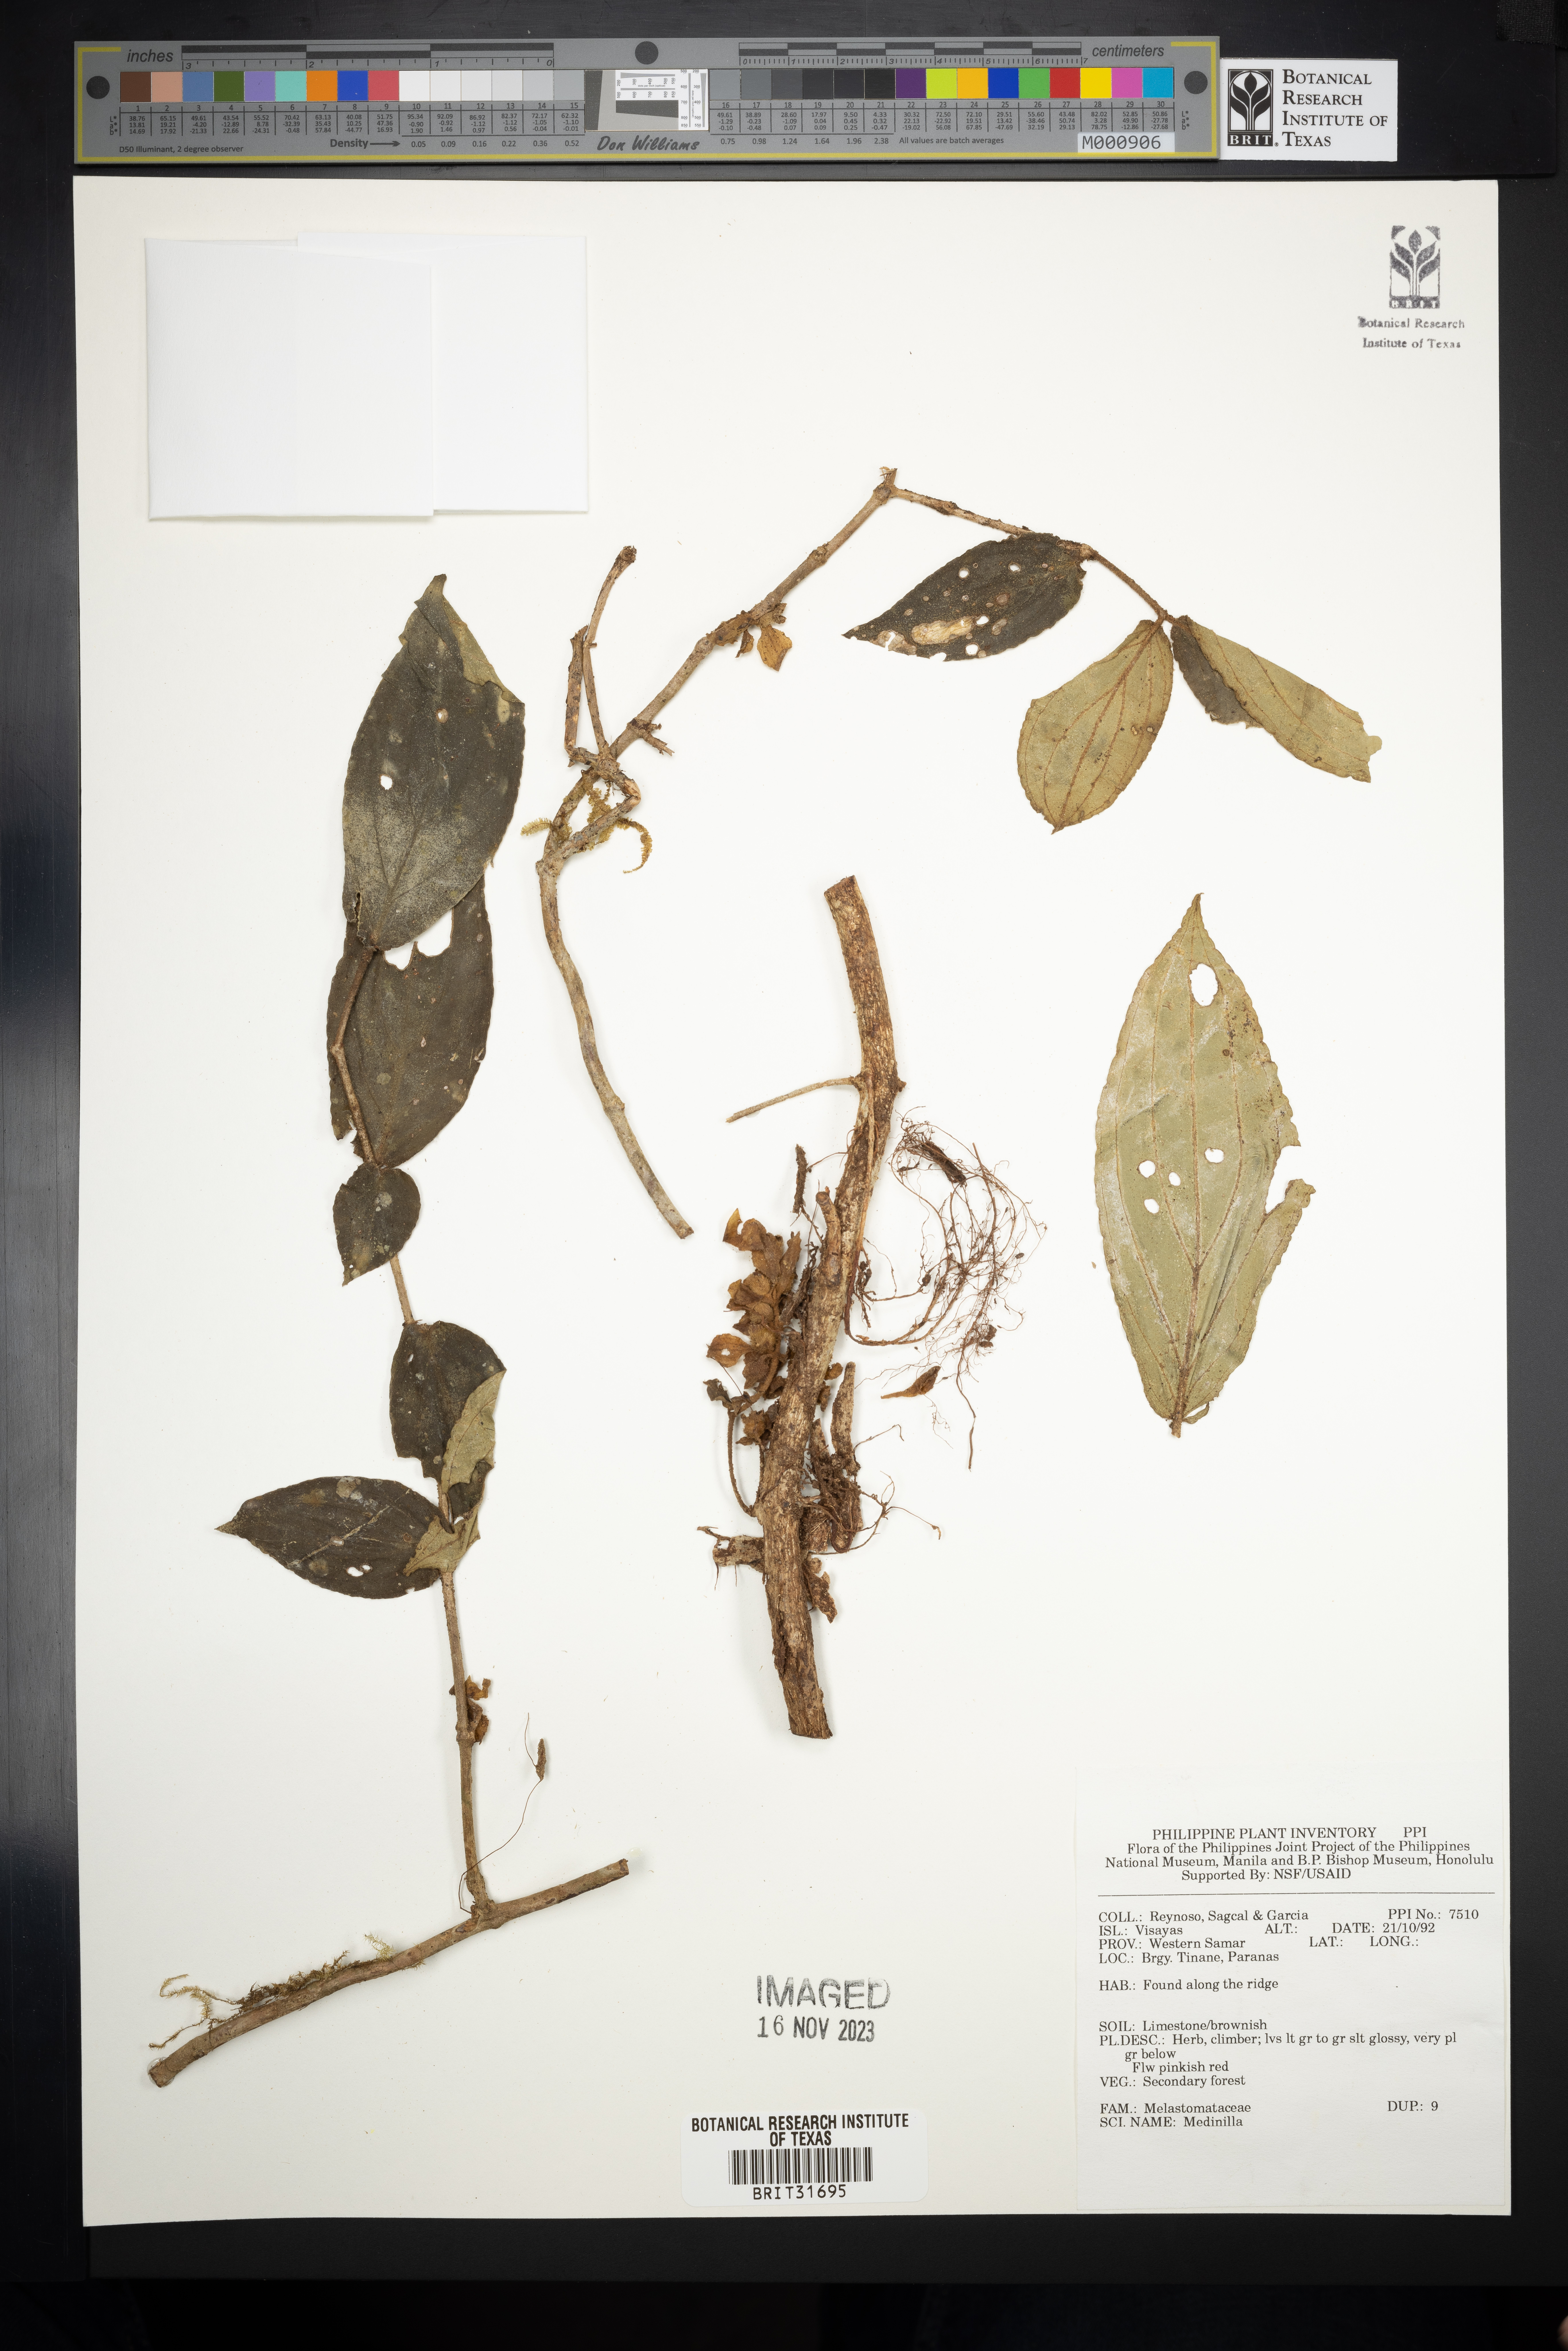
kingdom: Plantae
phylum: Tracheophyta
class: Magnoliopsida
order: Myrtales
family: Melastomataceae
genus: Medinilla
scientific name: Medinilla
